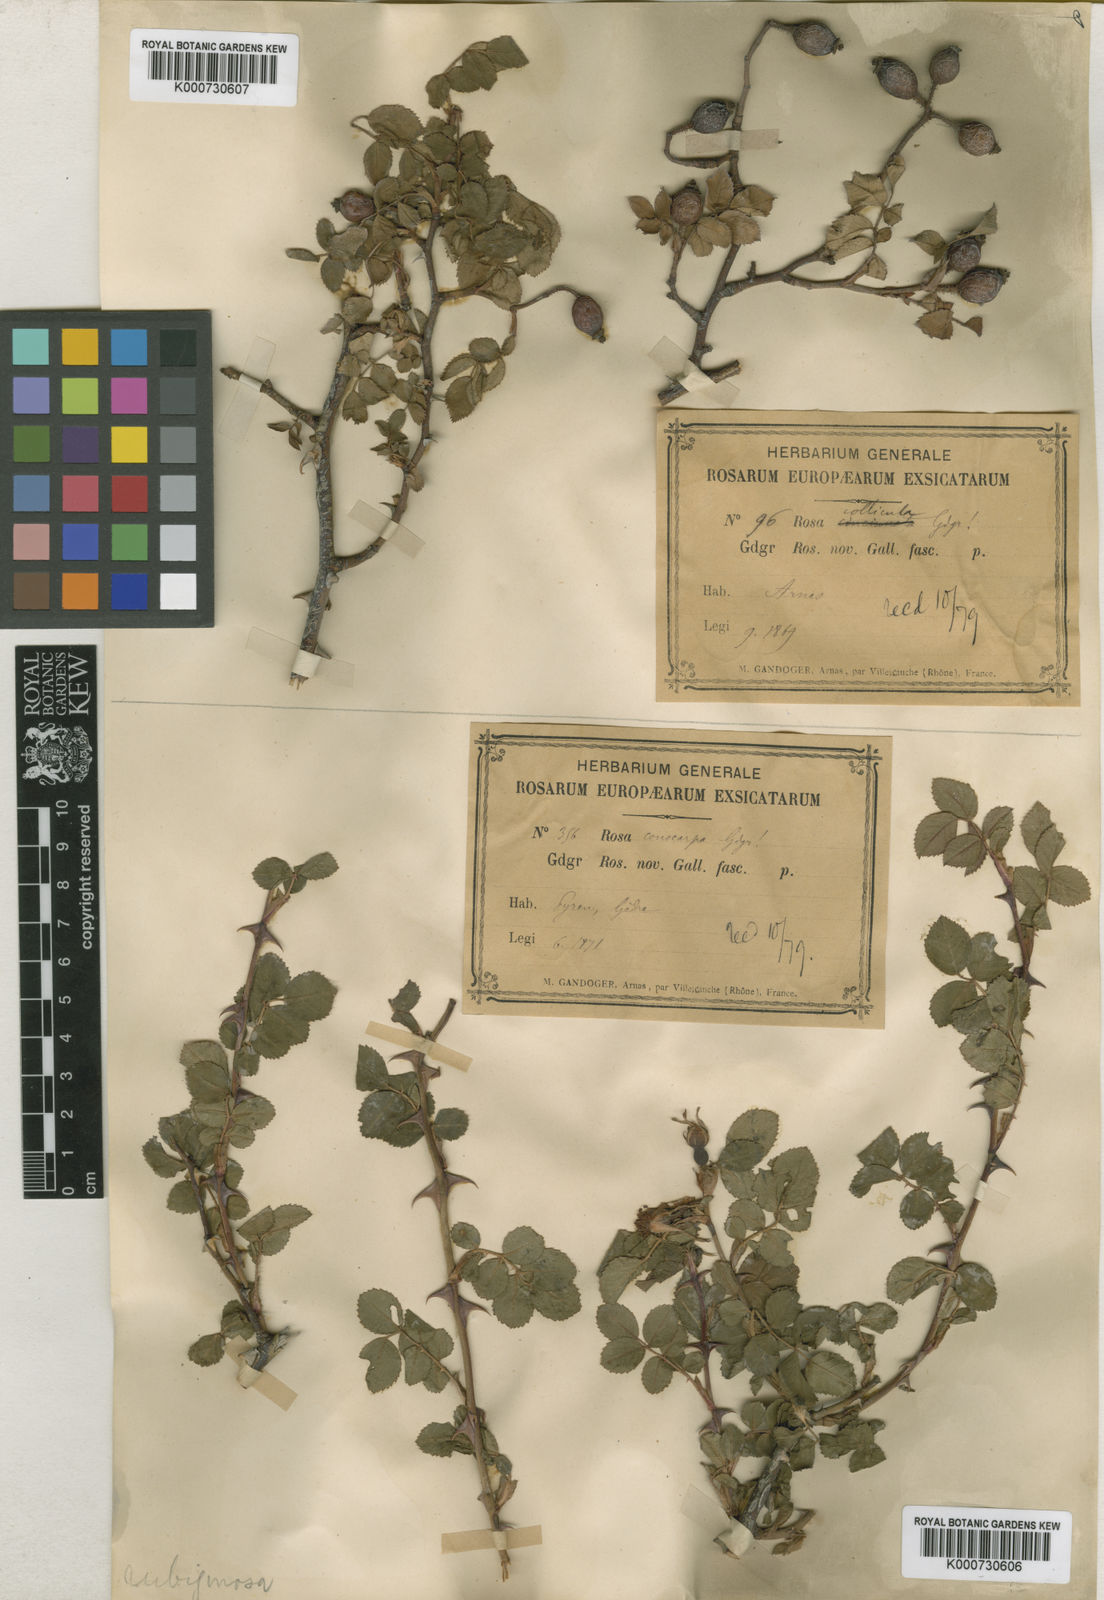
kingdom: Plantae
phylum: Tracheophyta
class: Magnoliopsida
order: Rosales
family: Rosaceae
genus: Rosa
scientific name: Rosa rubiginosa
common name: Sweet-briar
